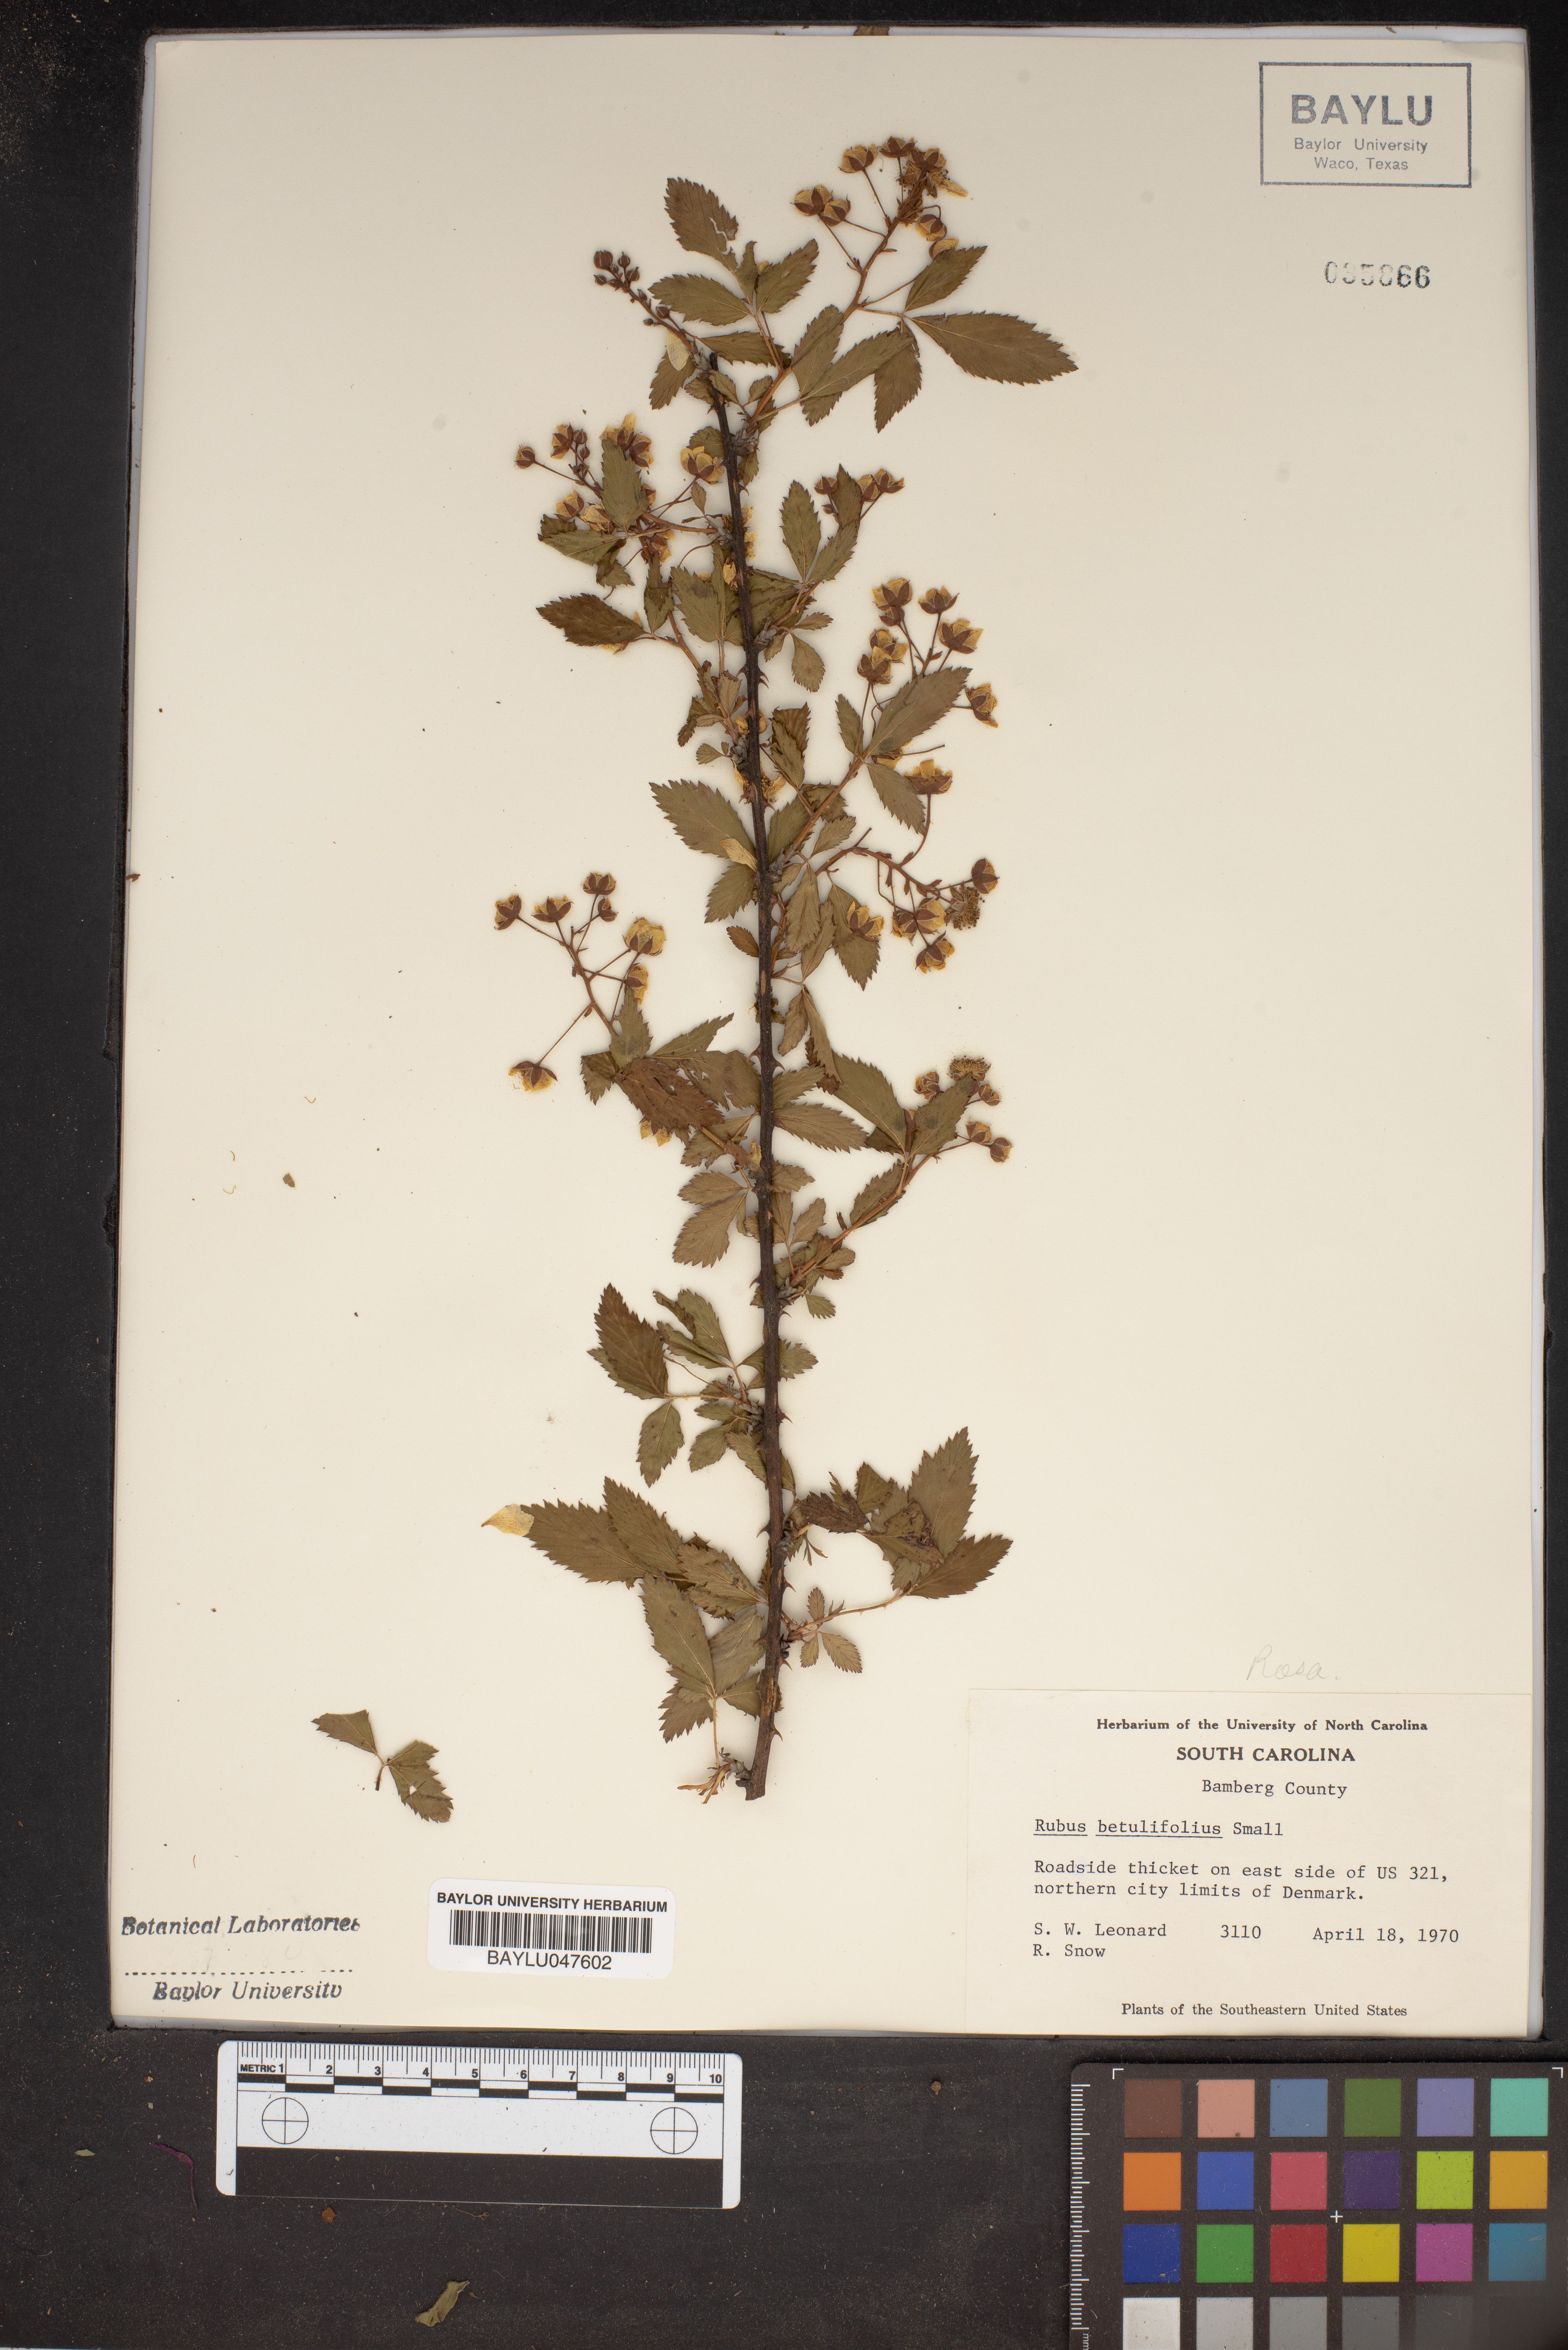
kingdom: Plantae
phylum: Tracheophyta
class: Magnoliopsida
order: Rosales
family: Rosaceae
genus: Rubus
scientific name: Rubus argutus
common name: Sawtooth blackberry
